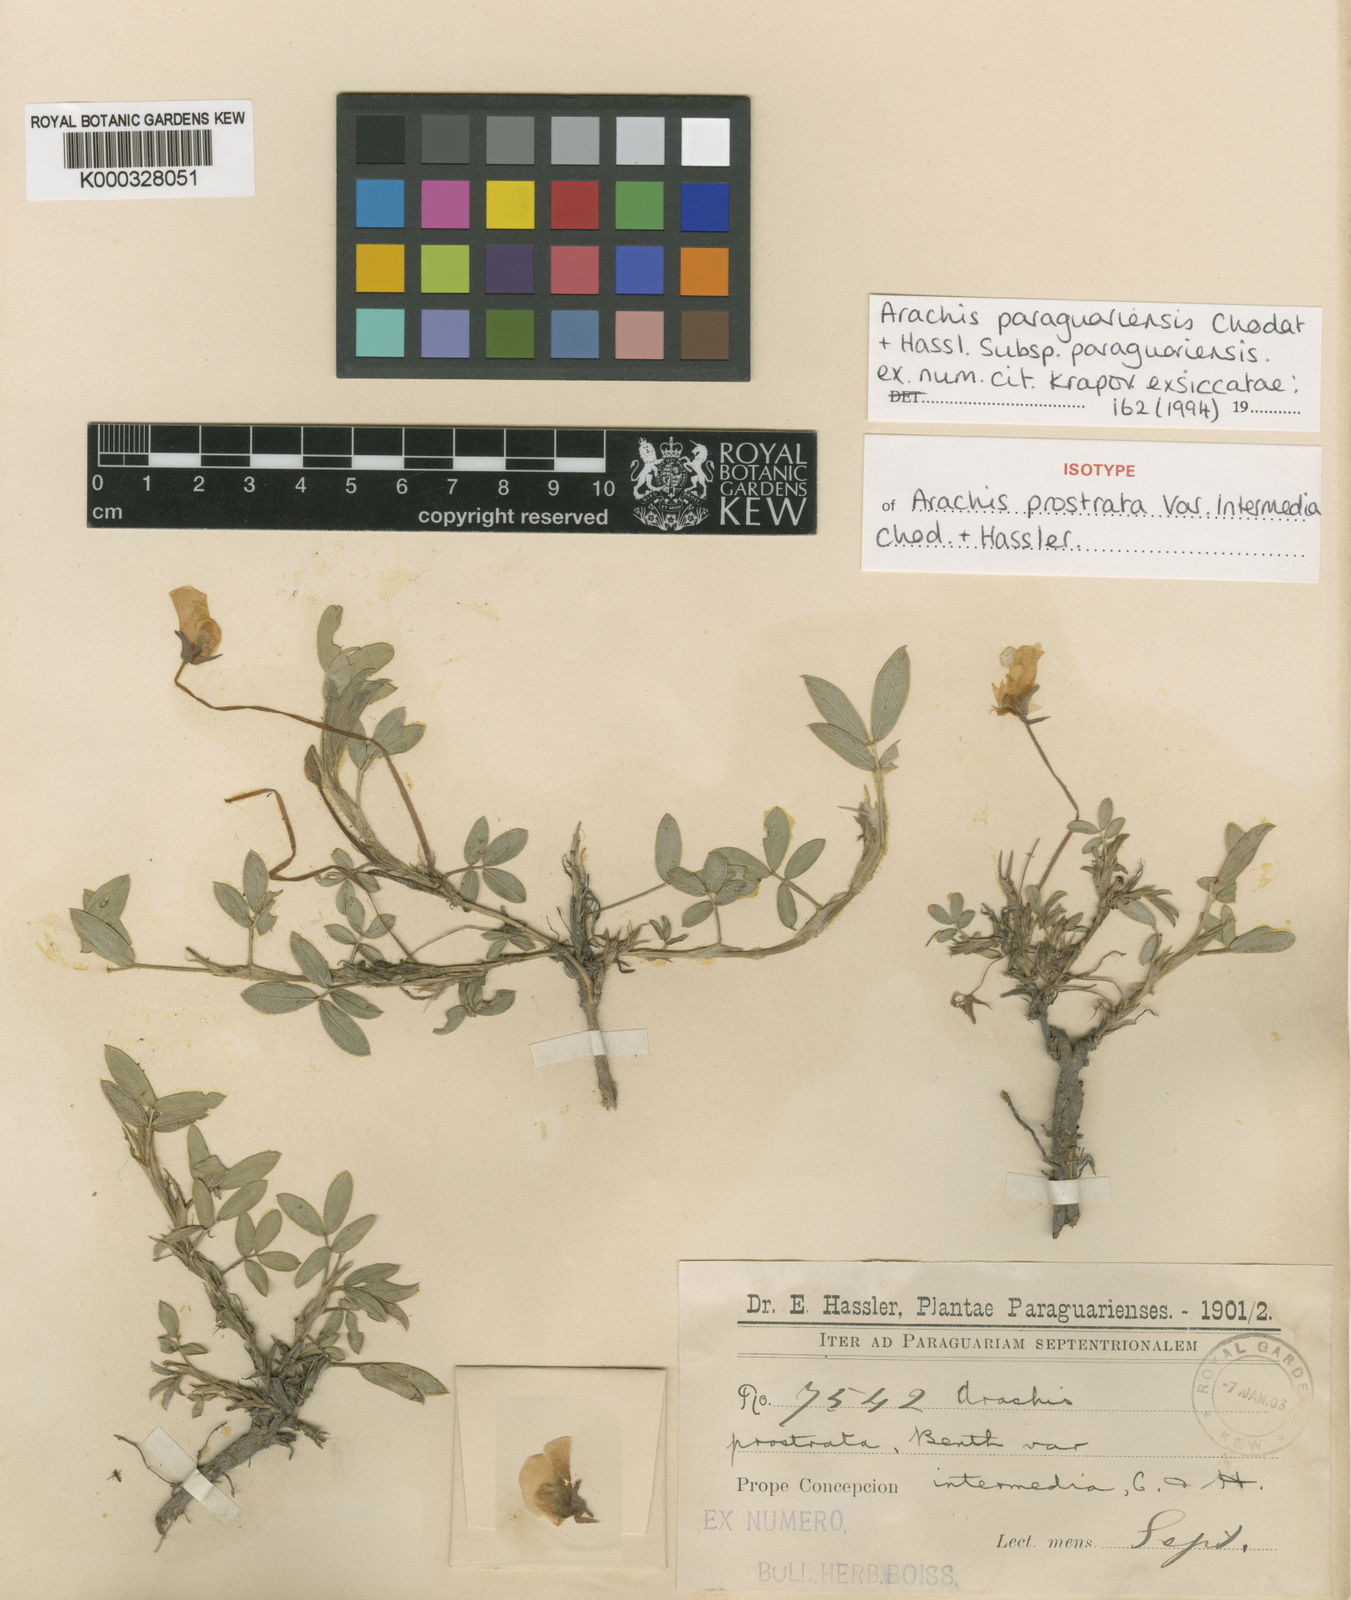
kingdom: Plantae
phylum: Tracheophyta
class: Magnoliopsida
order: Fabales
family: Fabaceae
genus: Arachis
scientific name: Arachis paraguariensis
